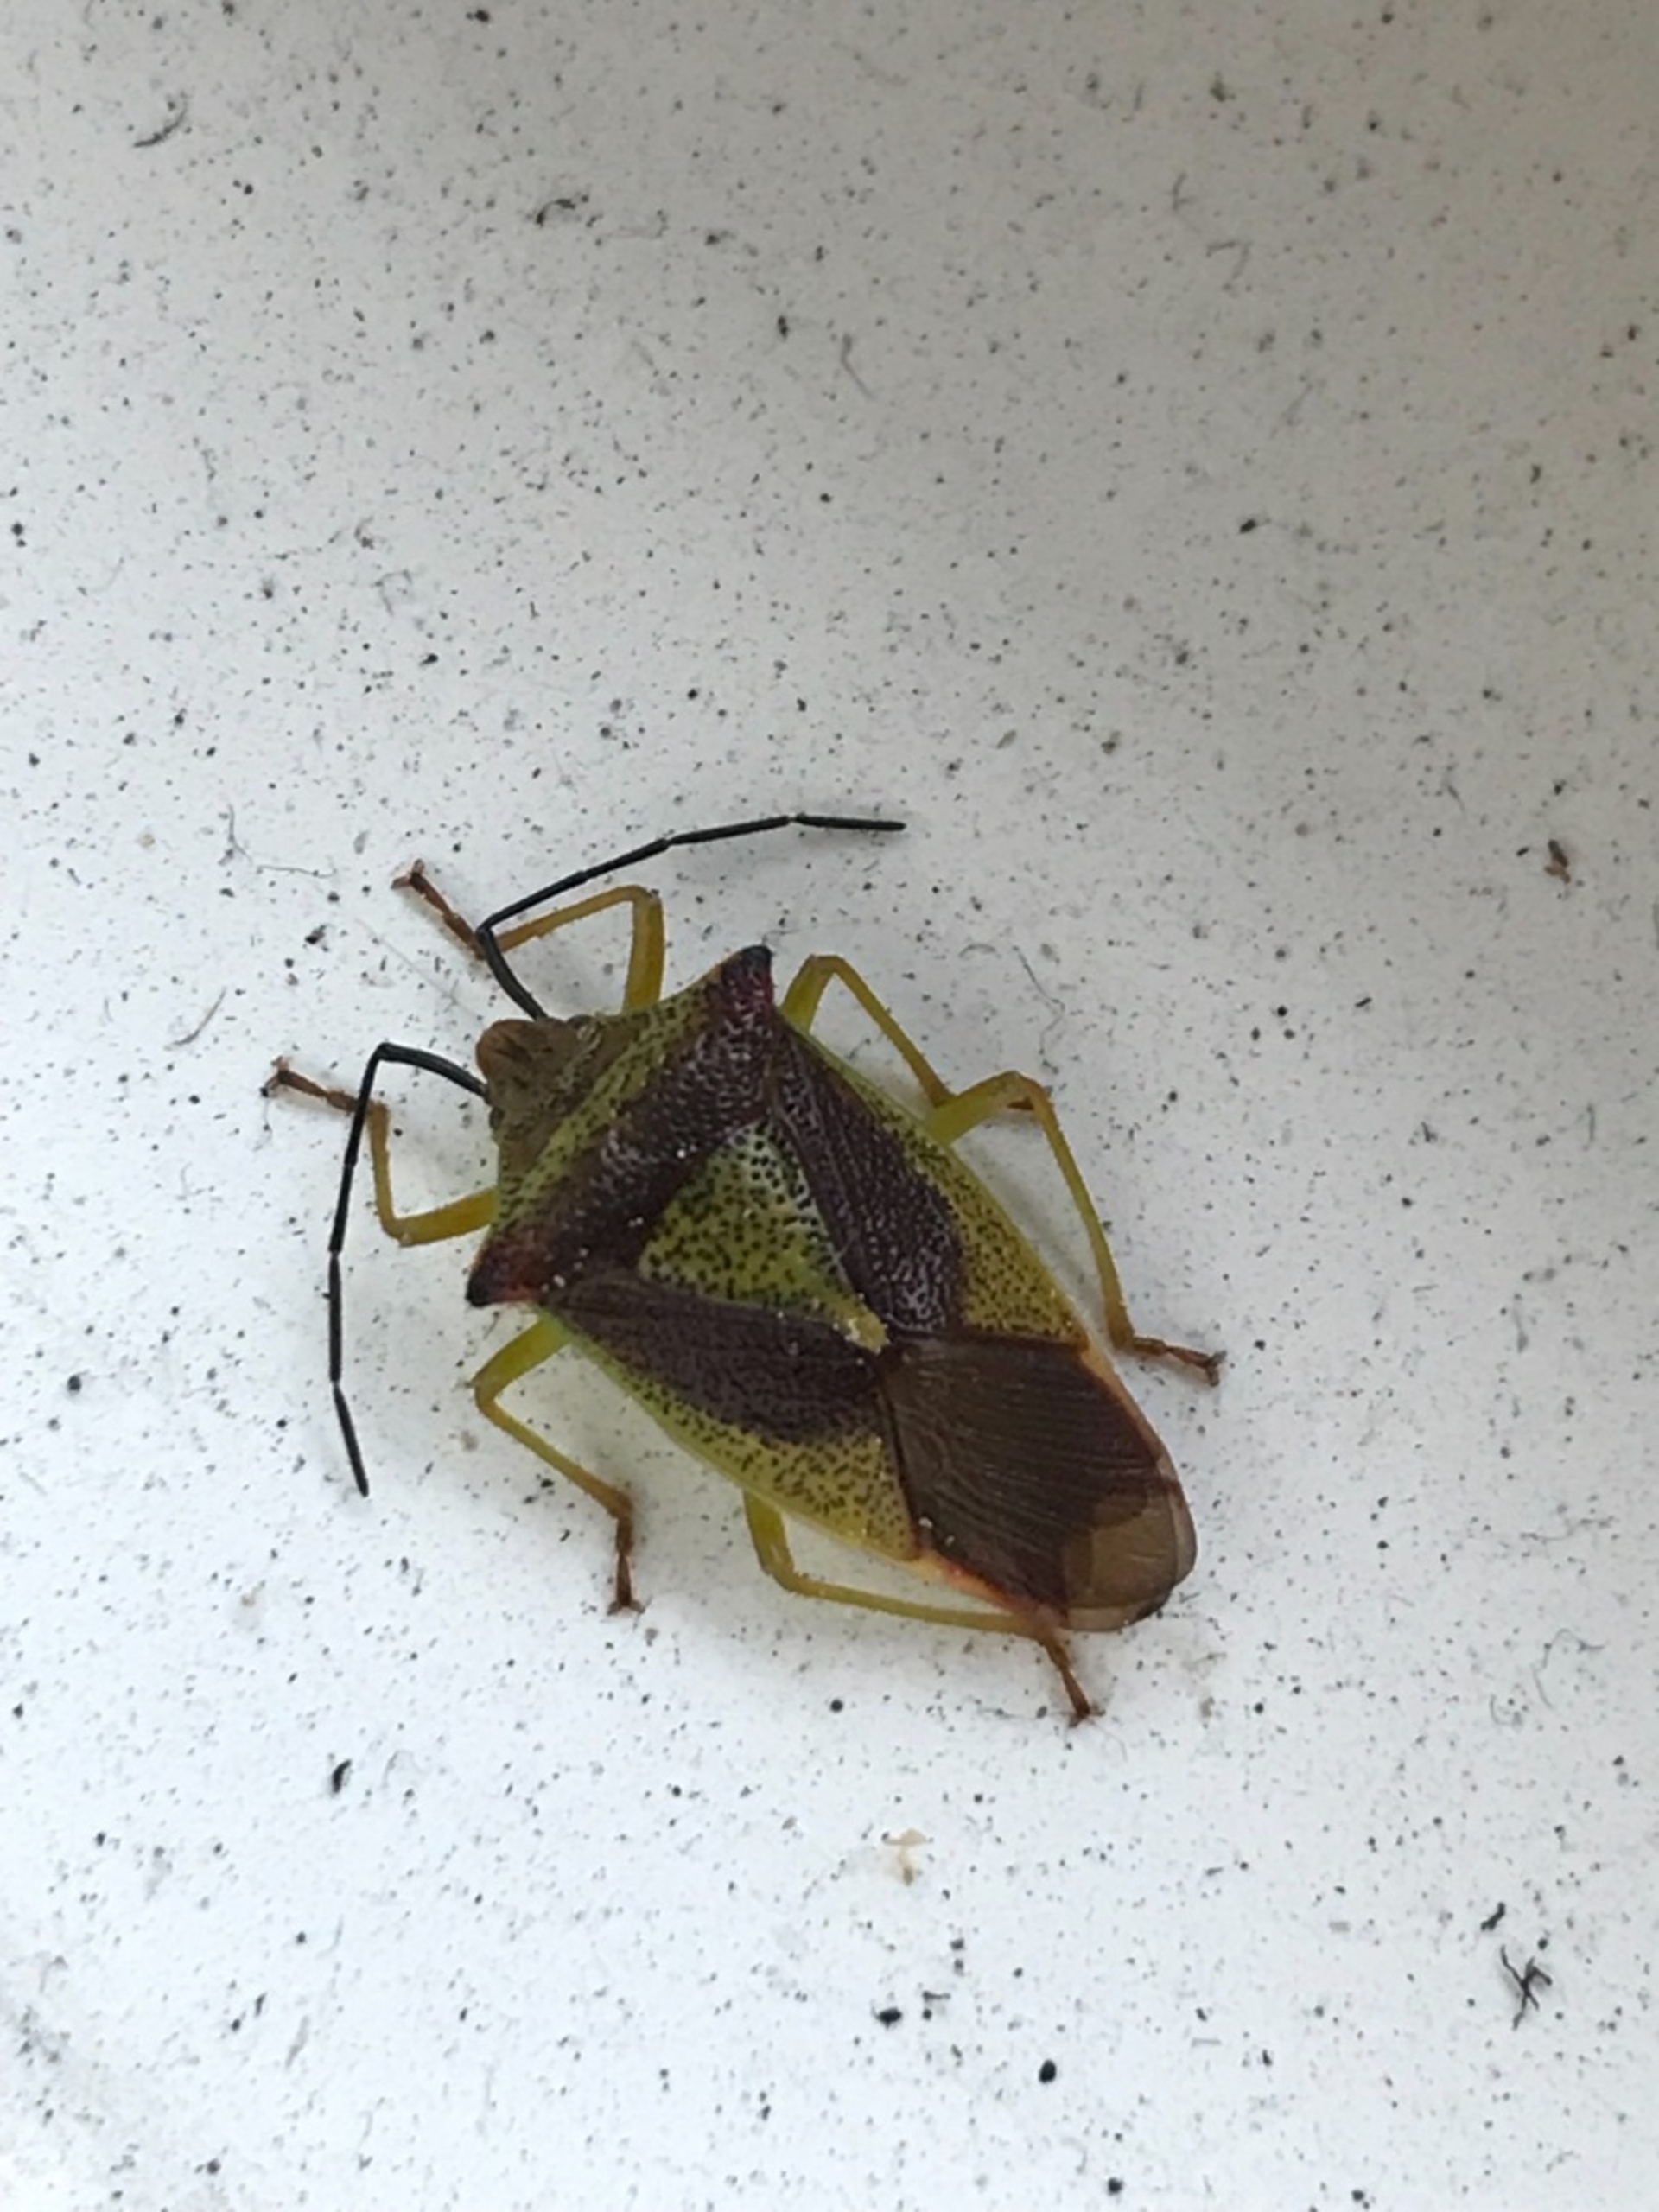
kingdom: Animalia
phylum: Arthropoda
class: Insecta
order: Hemiptera
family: Acanthosomatidae
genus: Acanthosoma
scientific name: Acanthosoma haemorrhoidale
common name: Stor løvtæge
